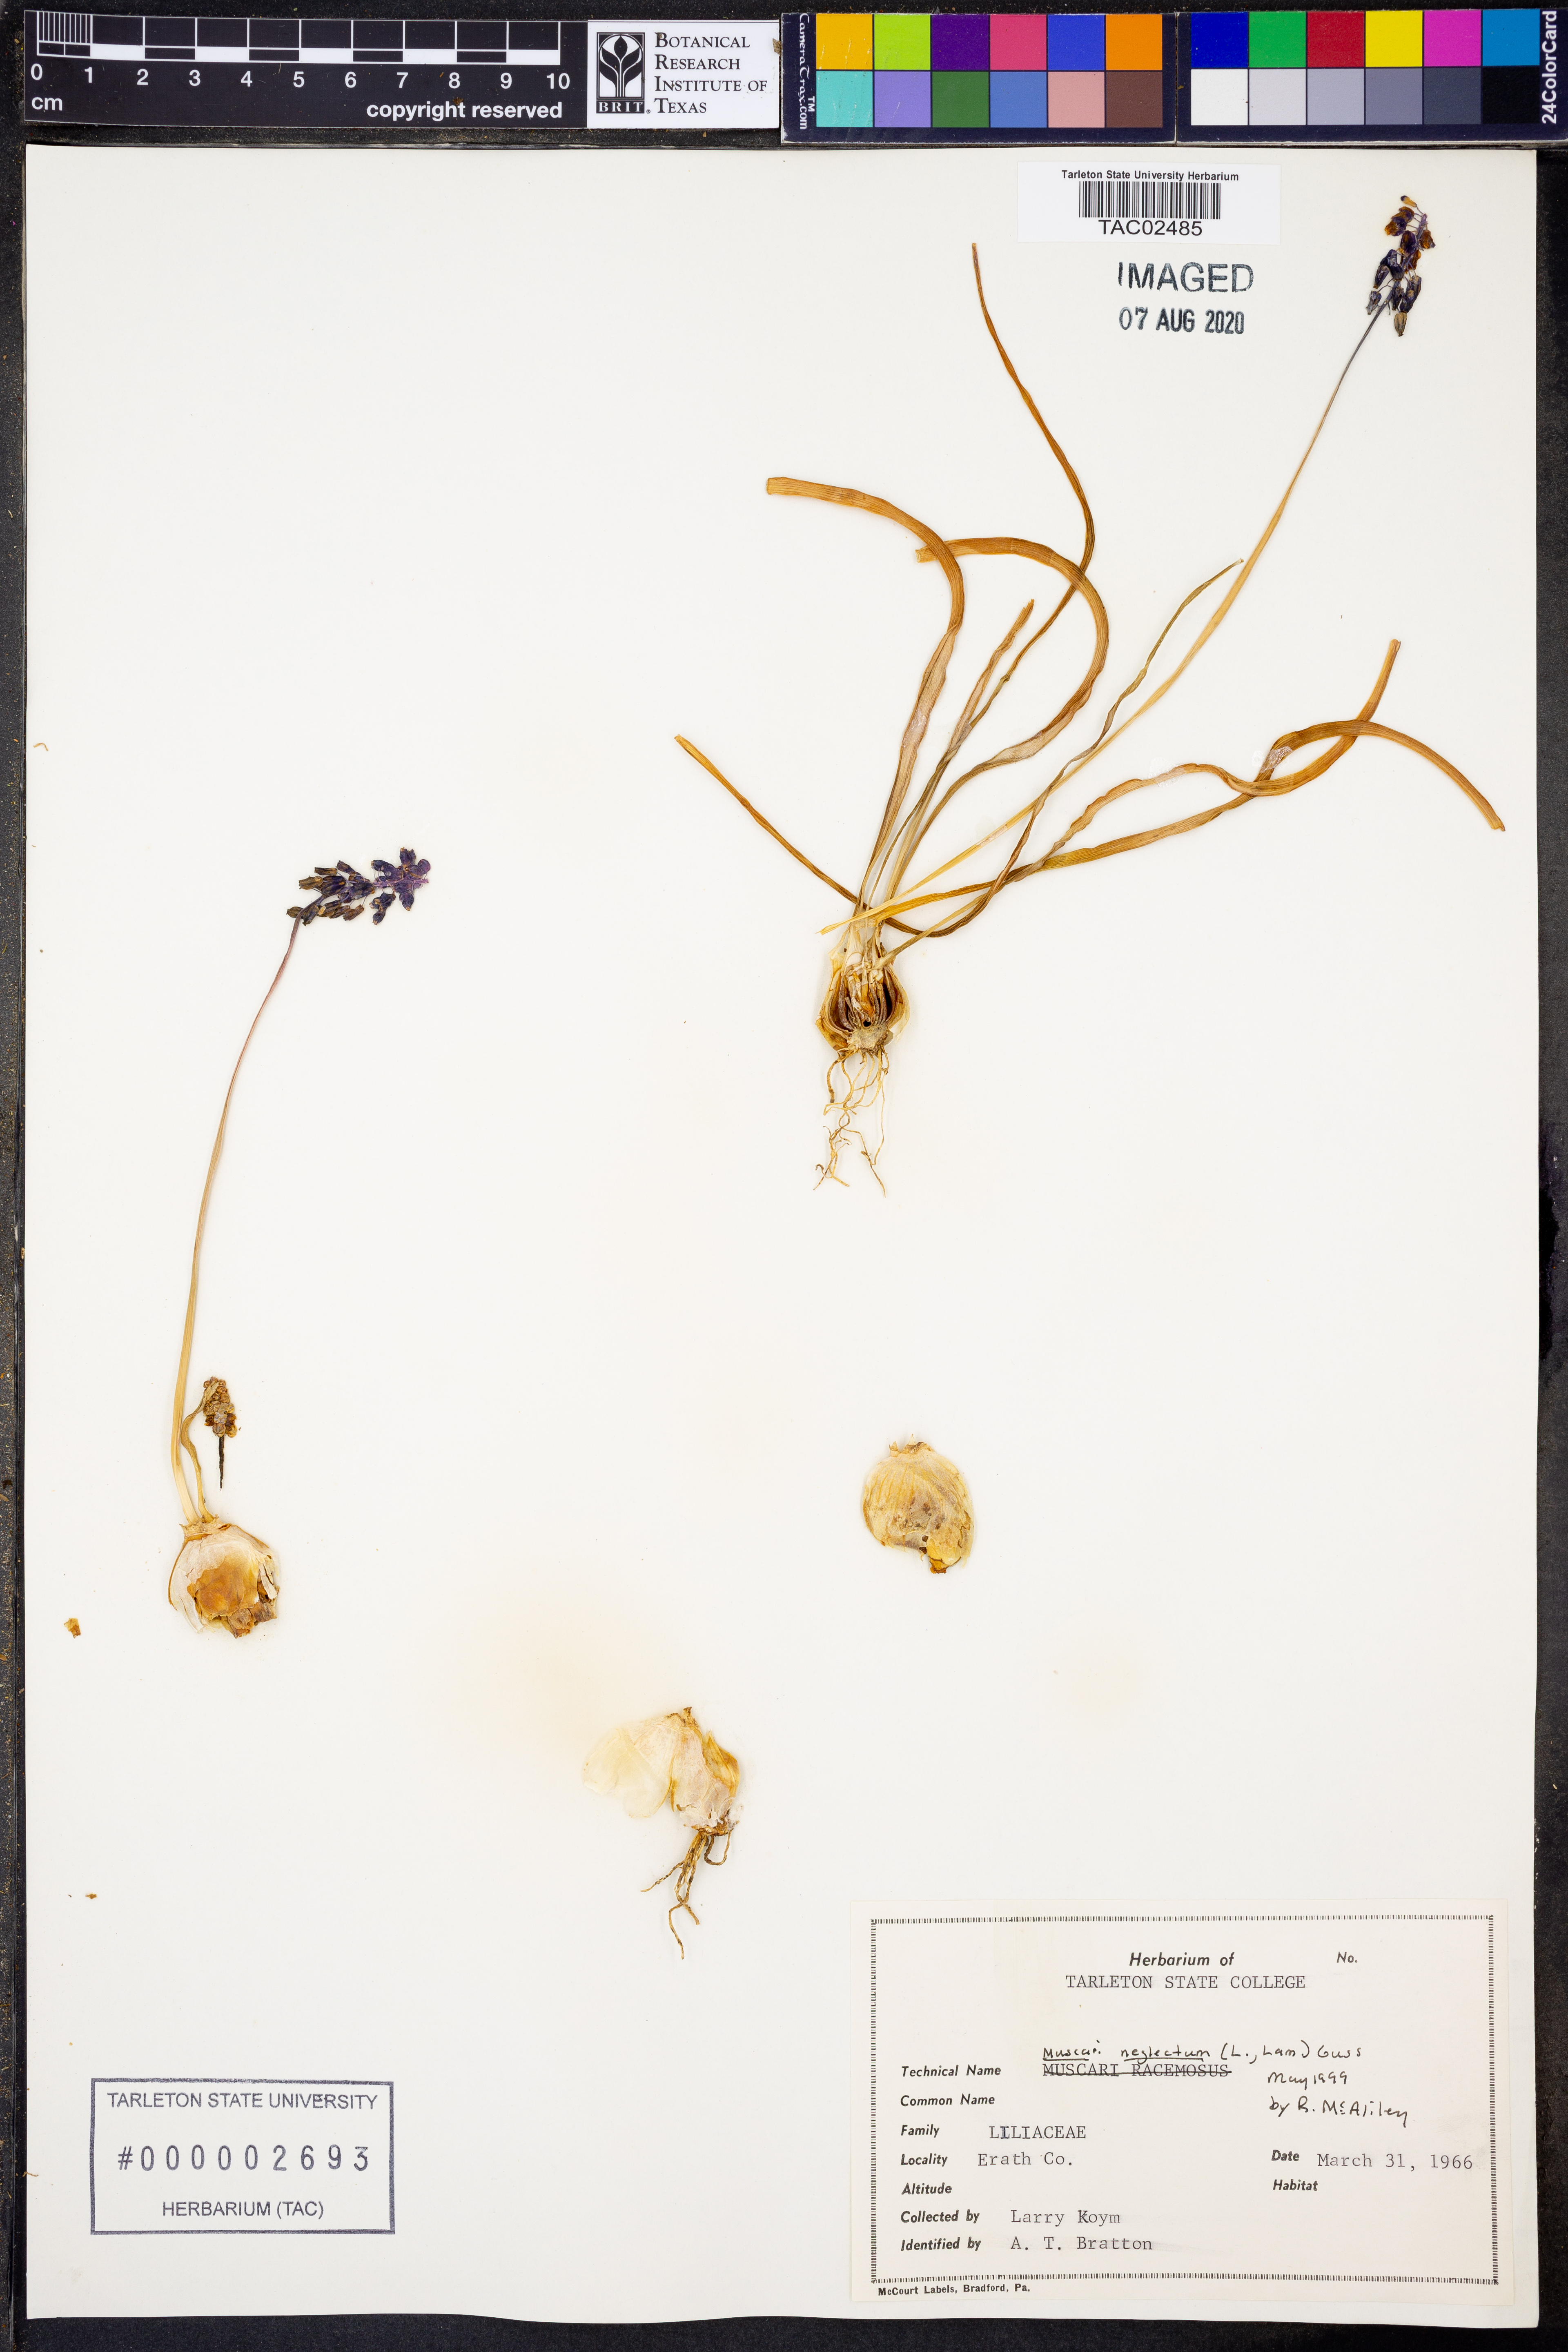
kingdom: Plantae
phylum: Tracheophyta
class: Liliopsida
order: Asparagales
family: Asparagaceae
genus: Muscari
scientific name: Muscari neglectum
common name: Grape-hyacinth
